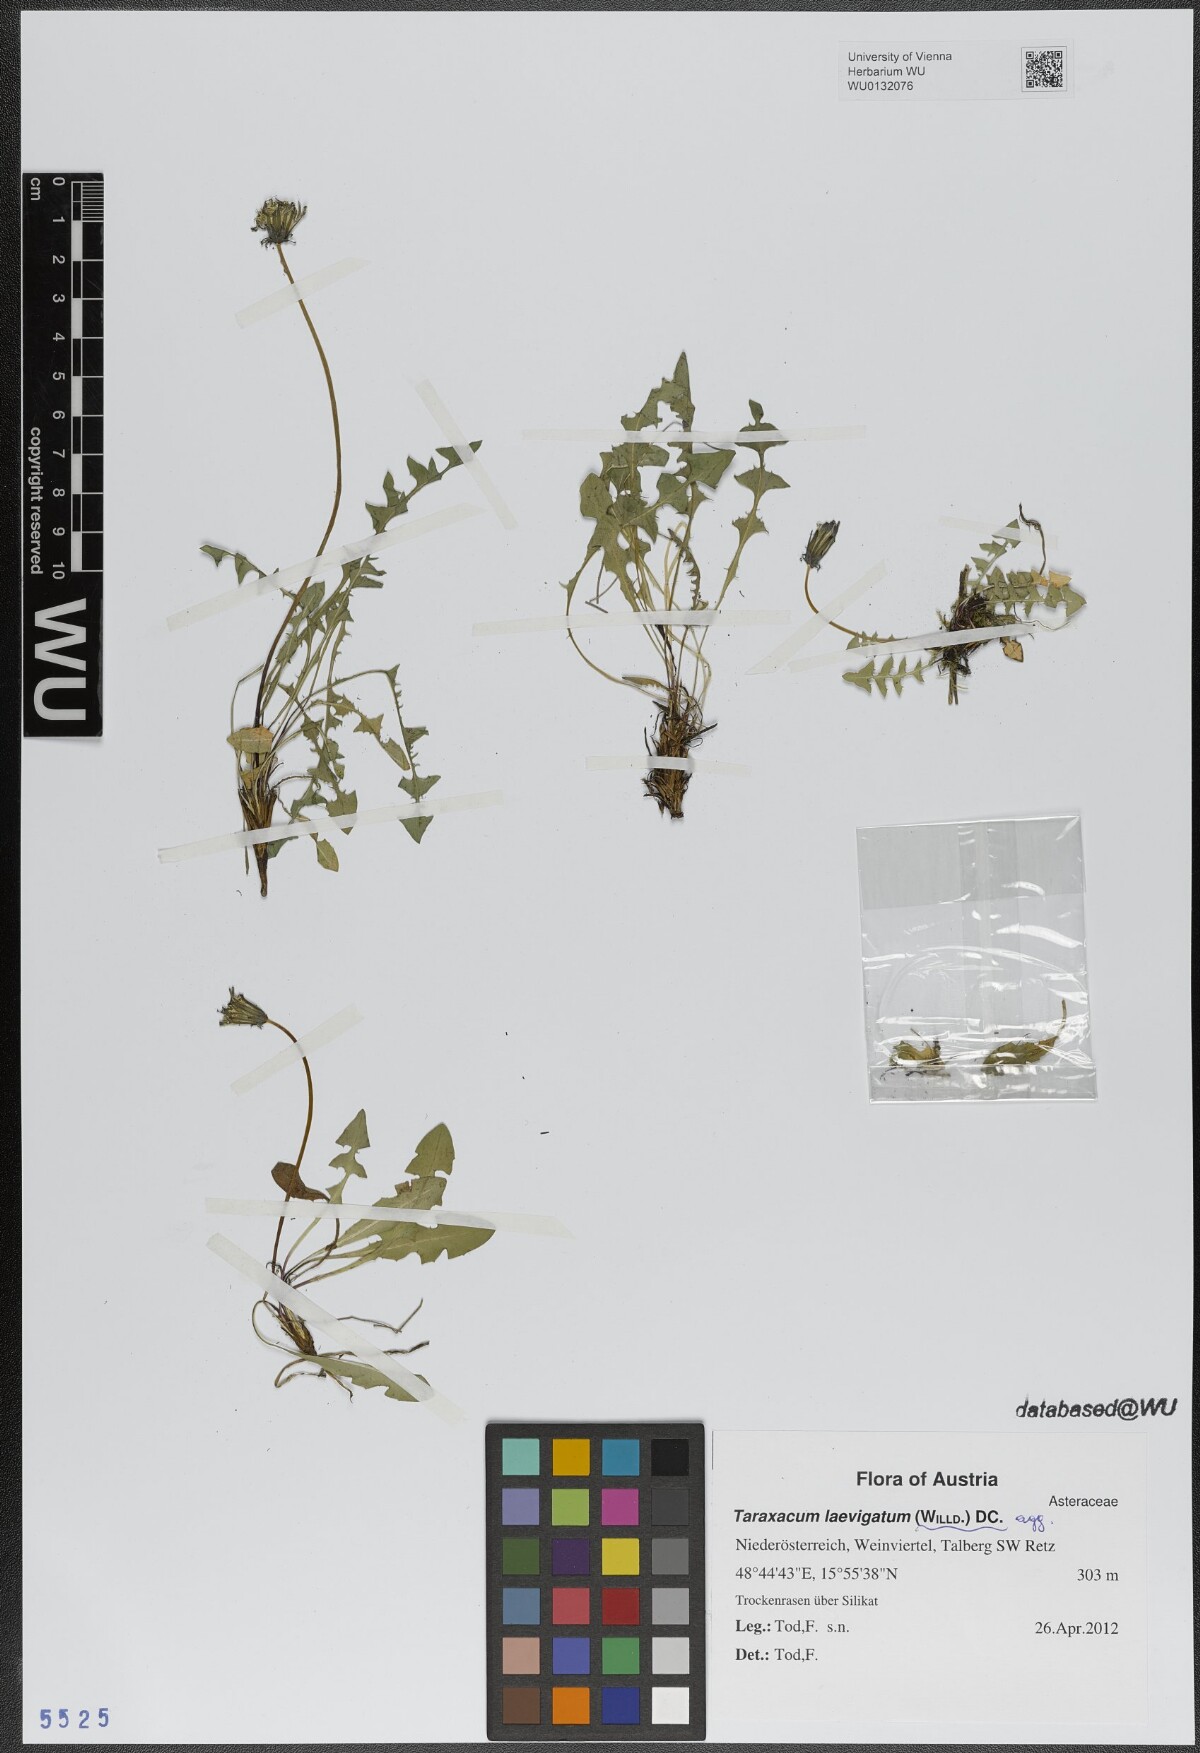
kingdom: Plantae
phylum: Tracheophyta
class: Magnoliopsida
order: Asterales
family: Asteraceae
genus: Taraxacum
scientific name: Taraxacum erythrospermum
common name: Rock dandelion
